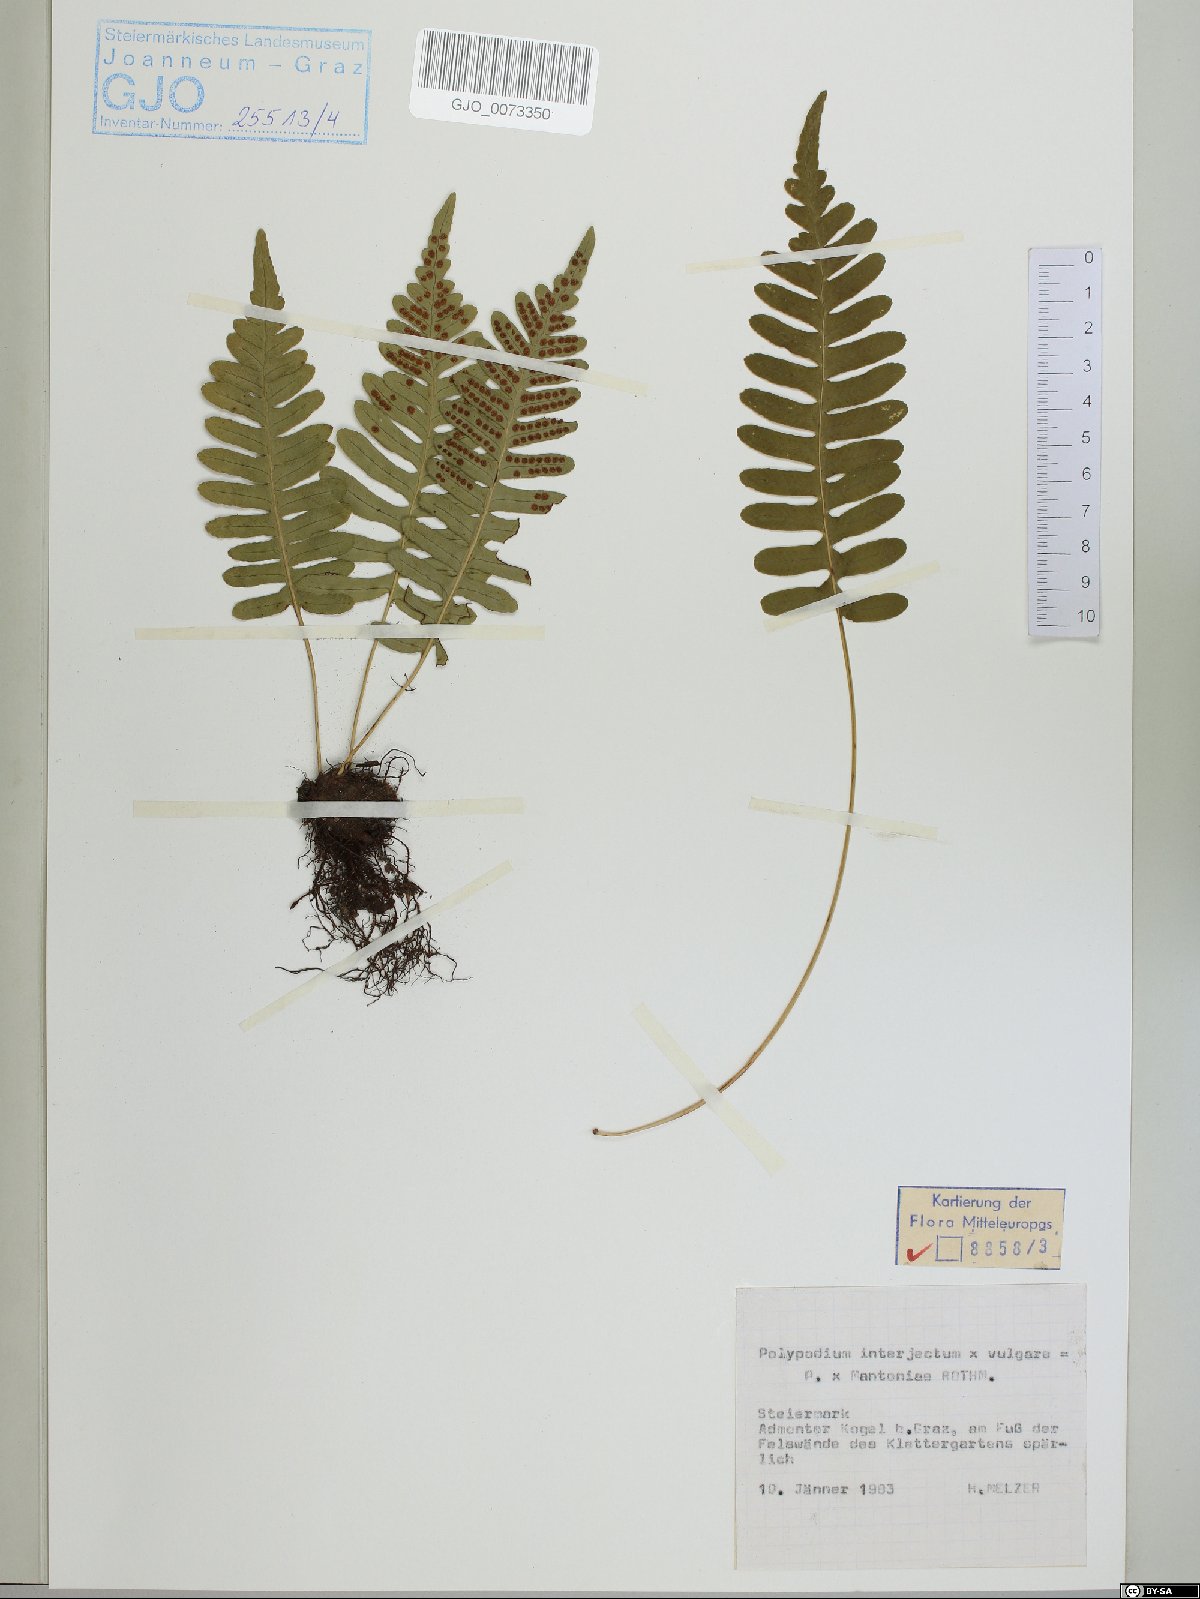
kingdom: Plantae
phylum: Tracheophyta
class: Polypodiopsida
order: Polypodiales
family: Polypodiaceae
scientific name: Polypodiaceae
